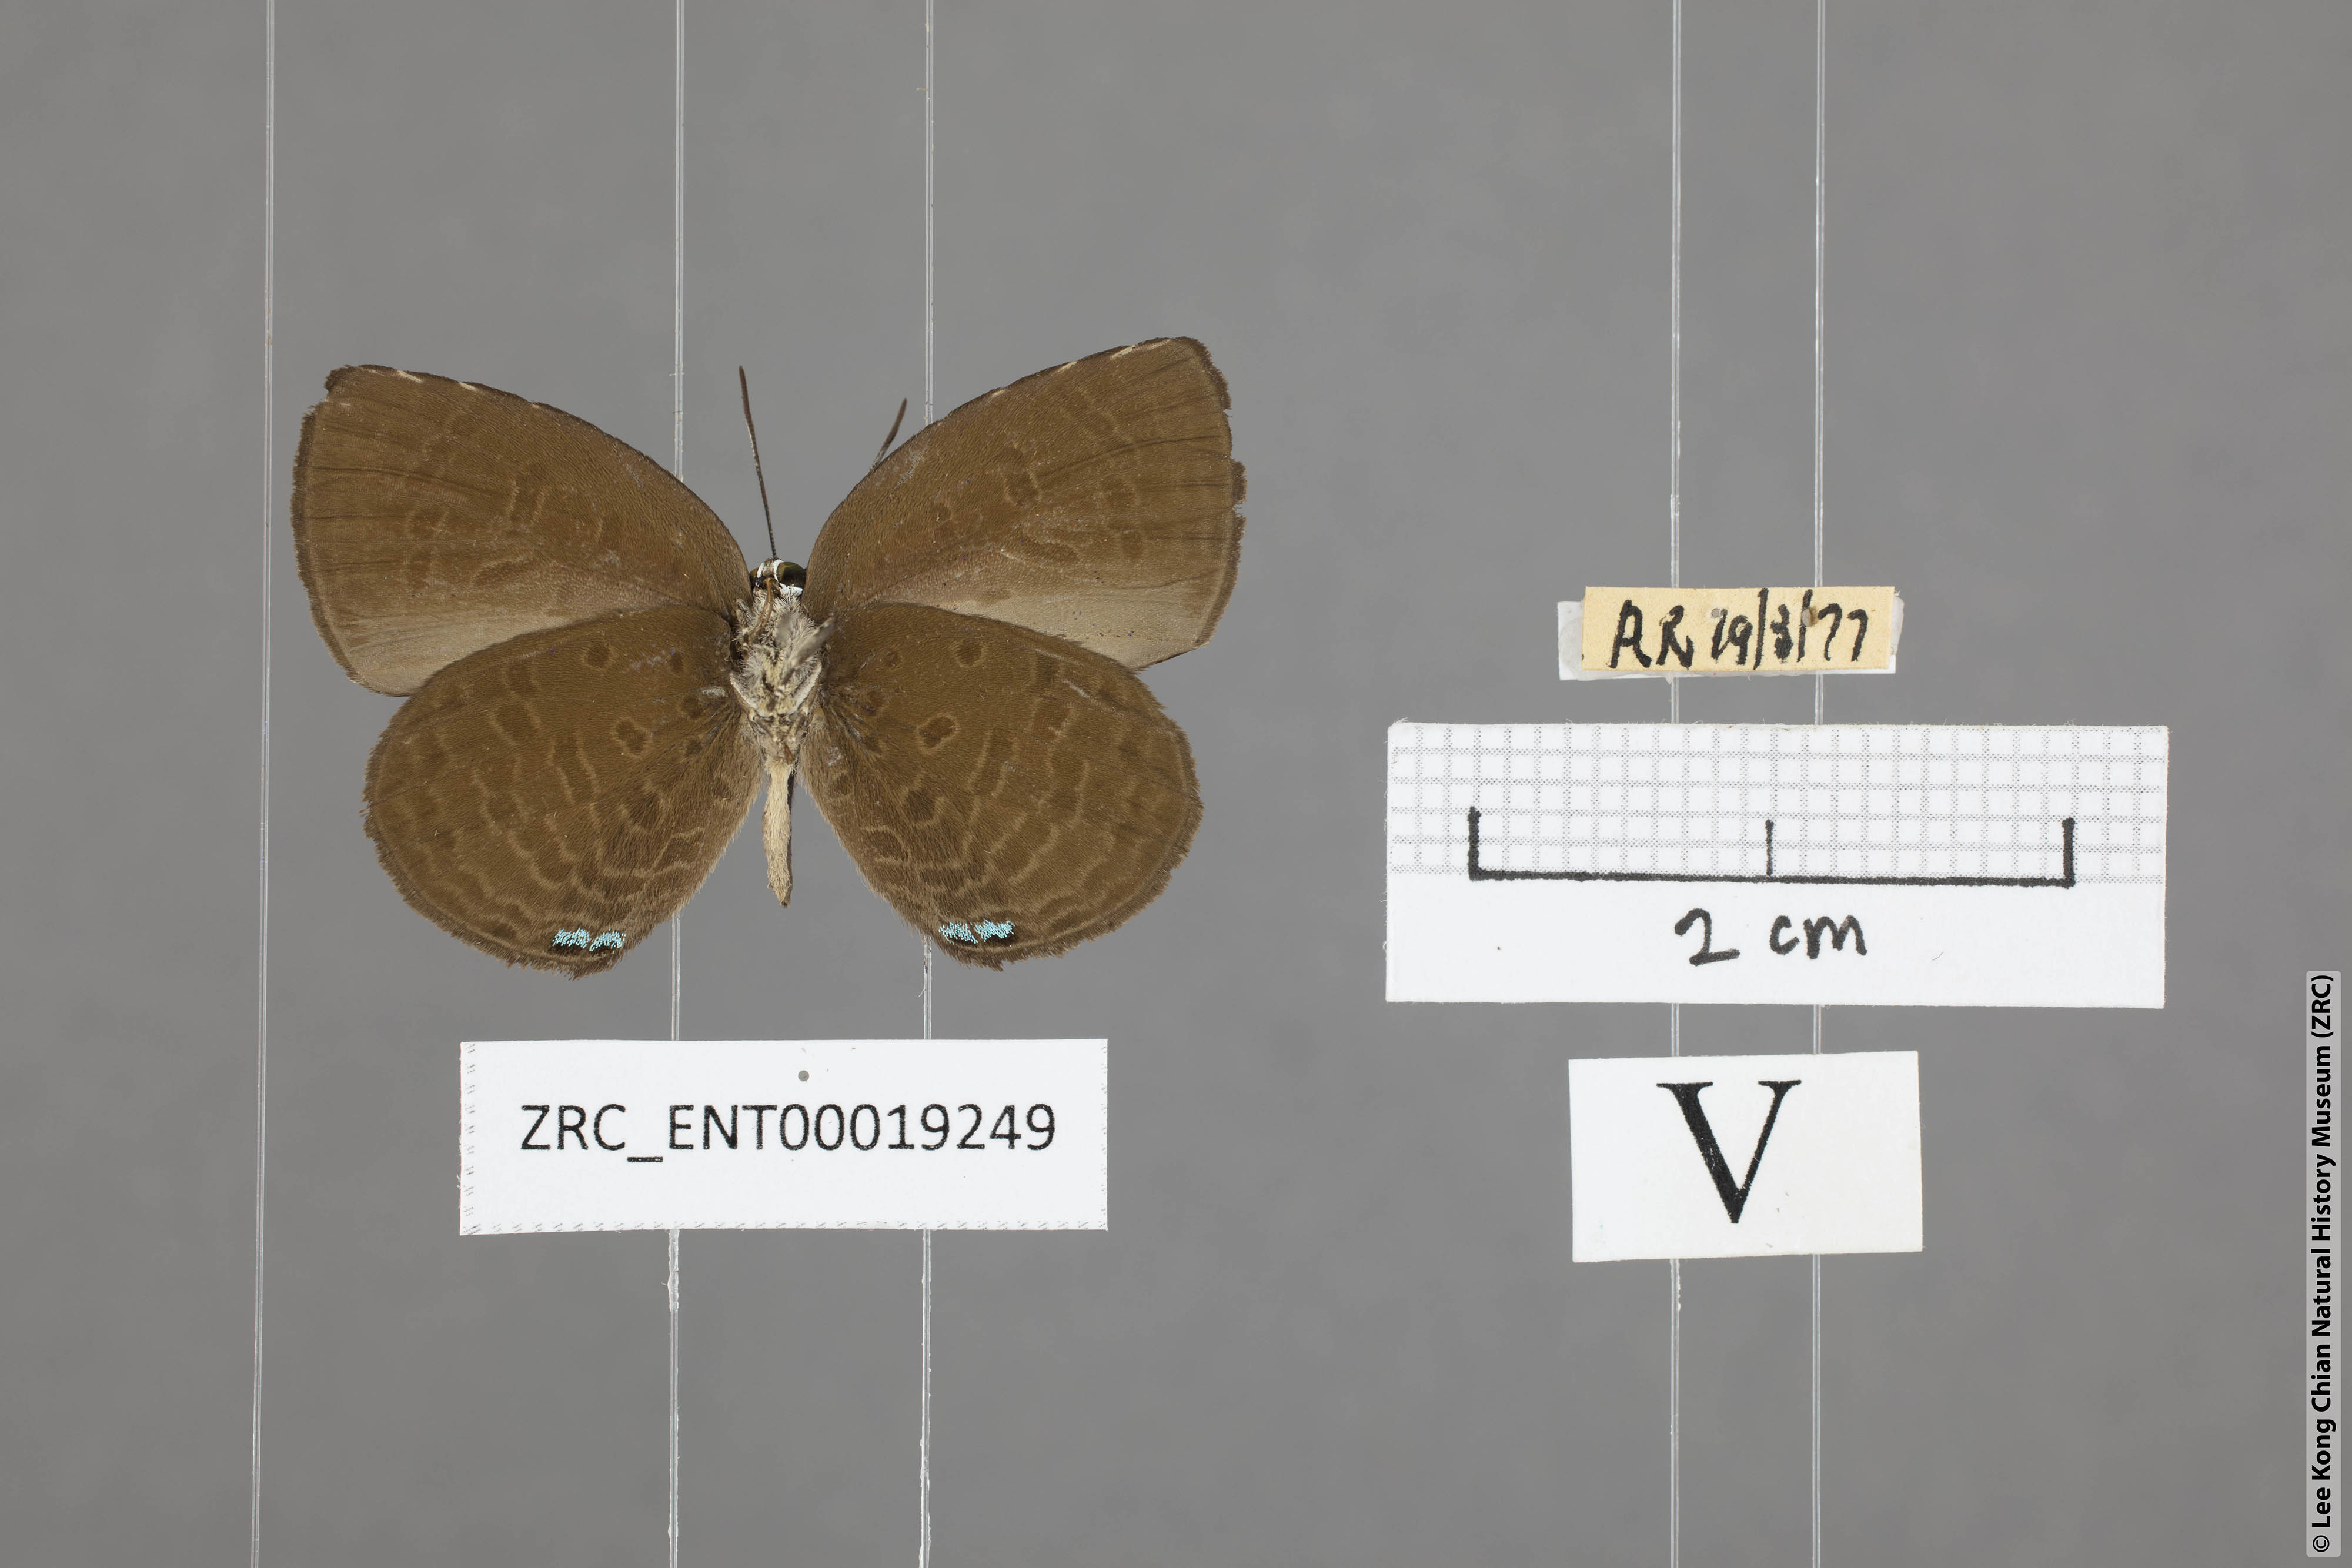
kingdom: Animalia
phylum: Arthropoda
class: Insecta
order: Lepidoptera
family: Lycaenidae
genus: Arhopala
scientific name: Arhopala avatha
